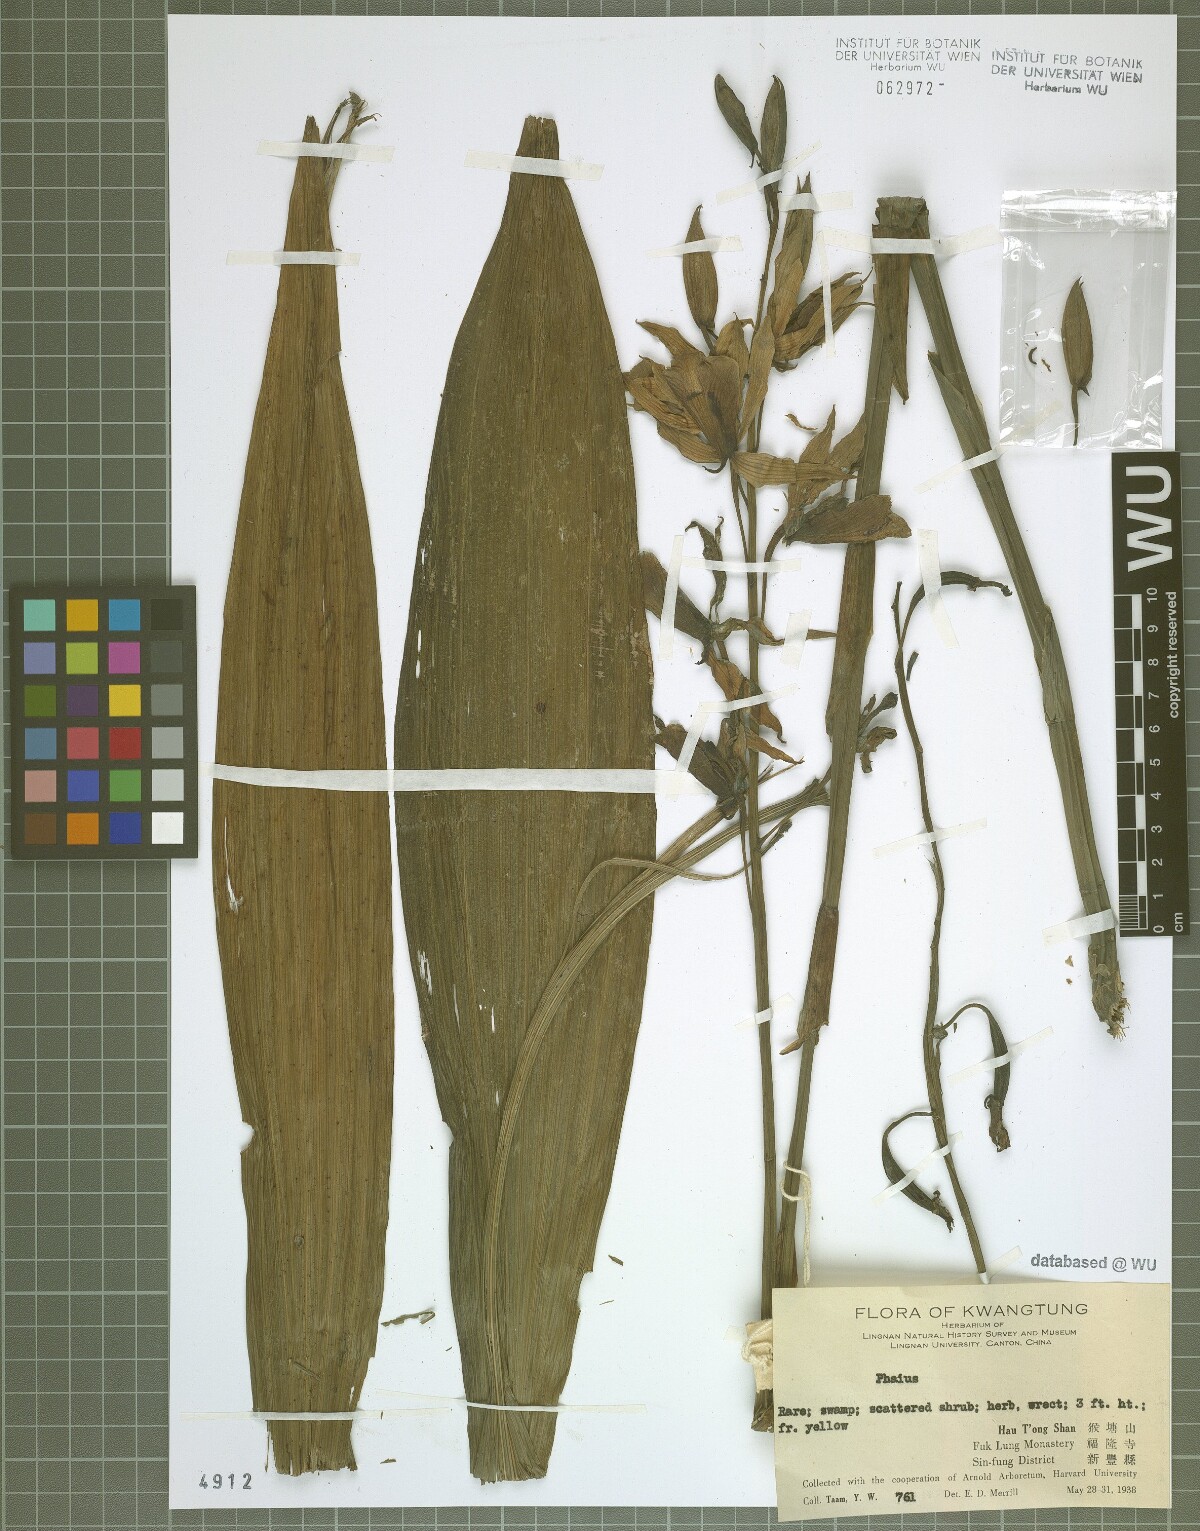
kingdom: Plantae
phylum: Tracheophyta
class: Liliopsida
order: Asparagales
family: Orchidaceae
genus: Calanthe
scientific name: Calanthe
